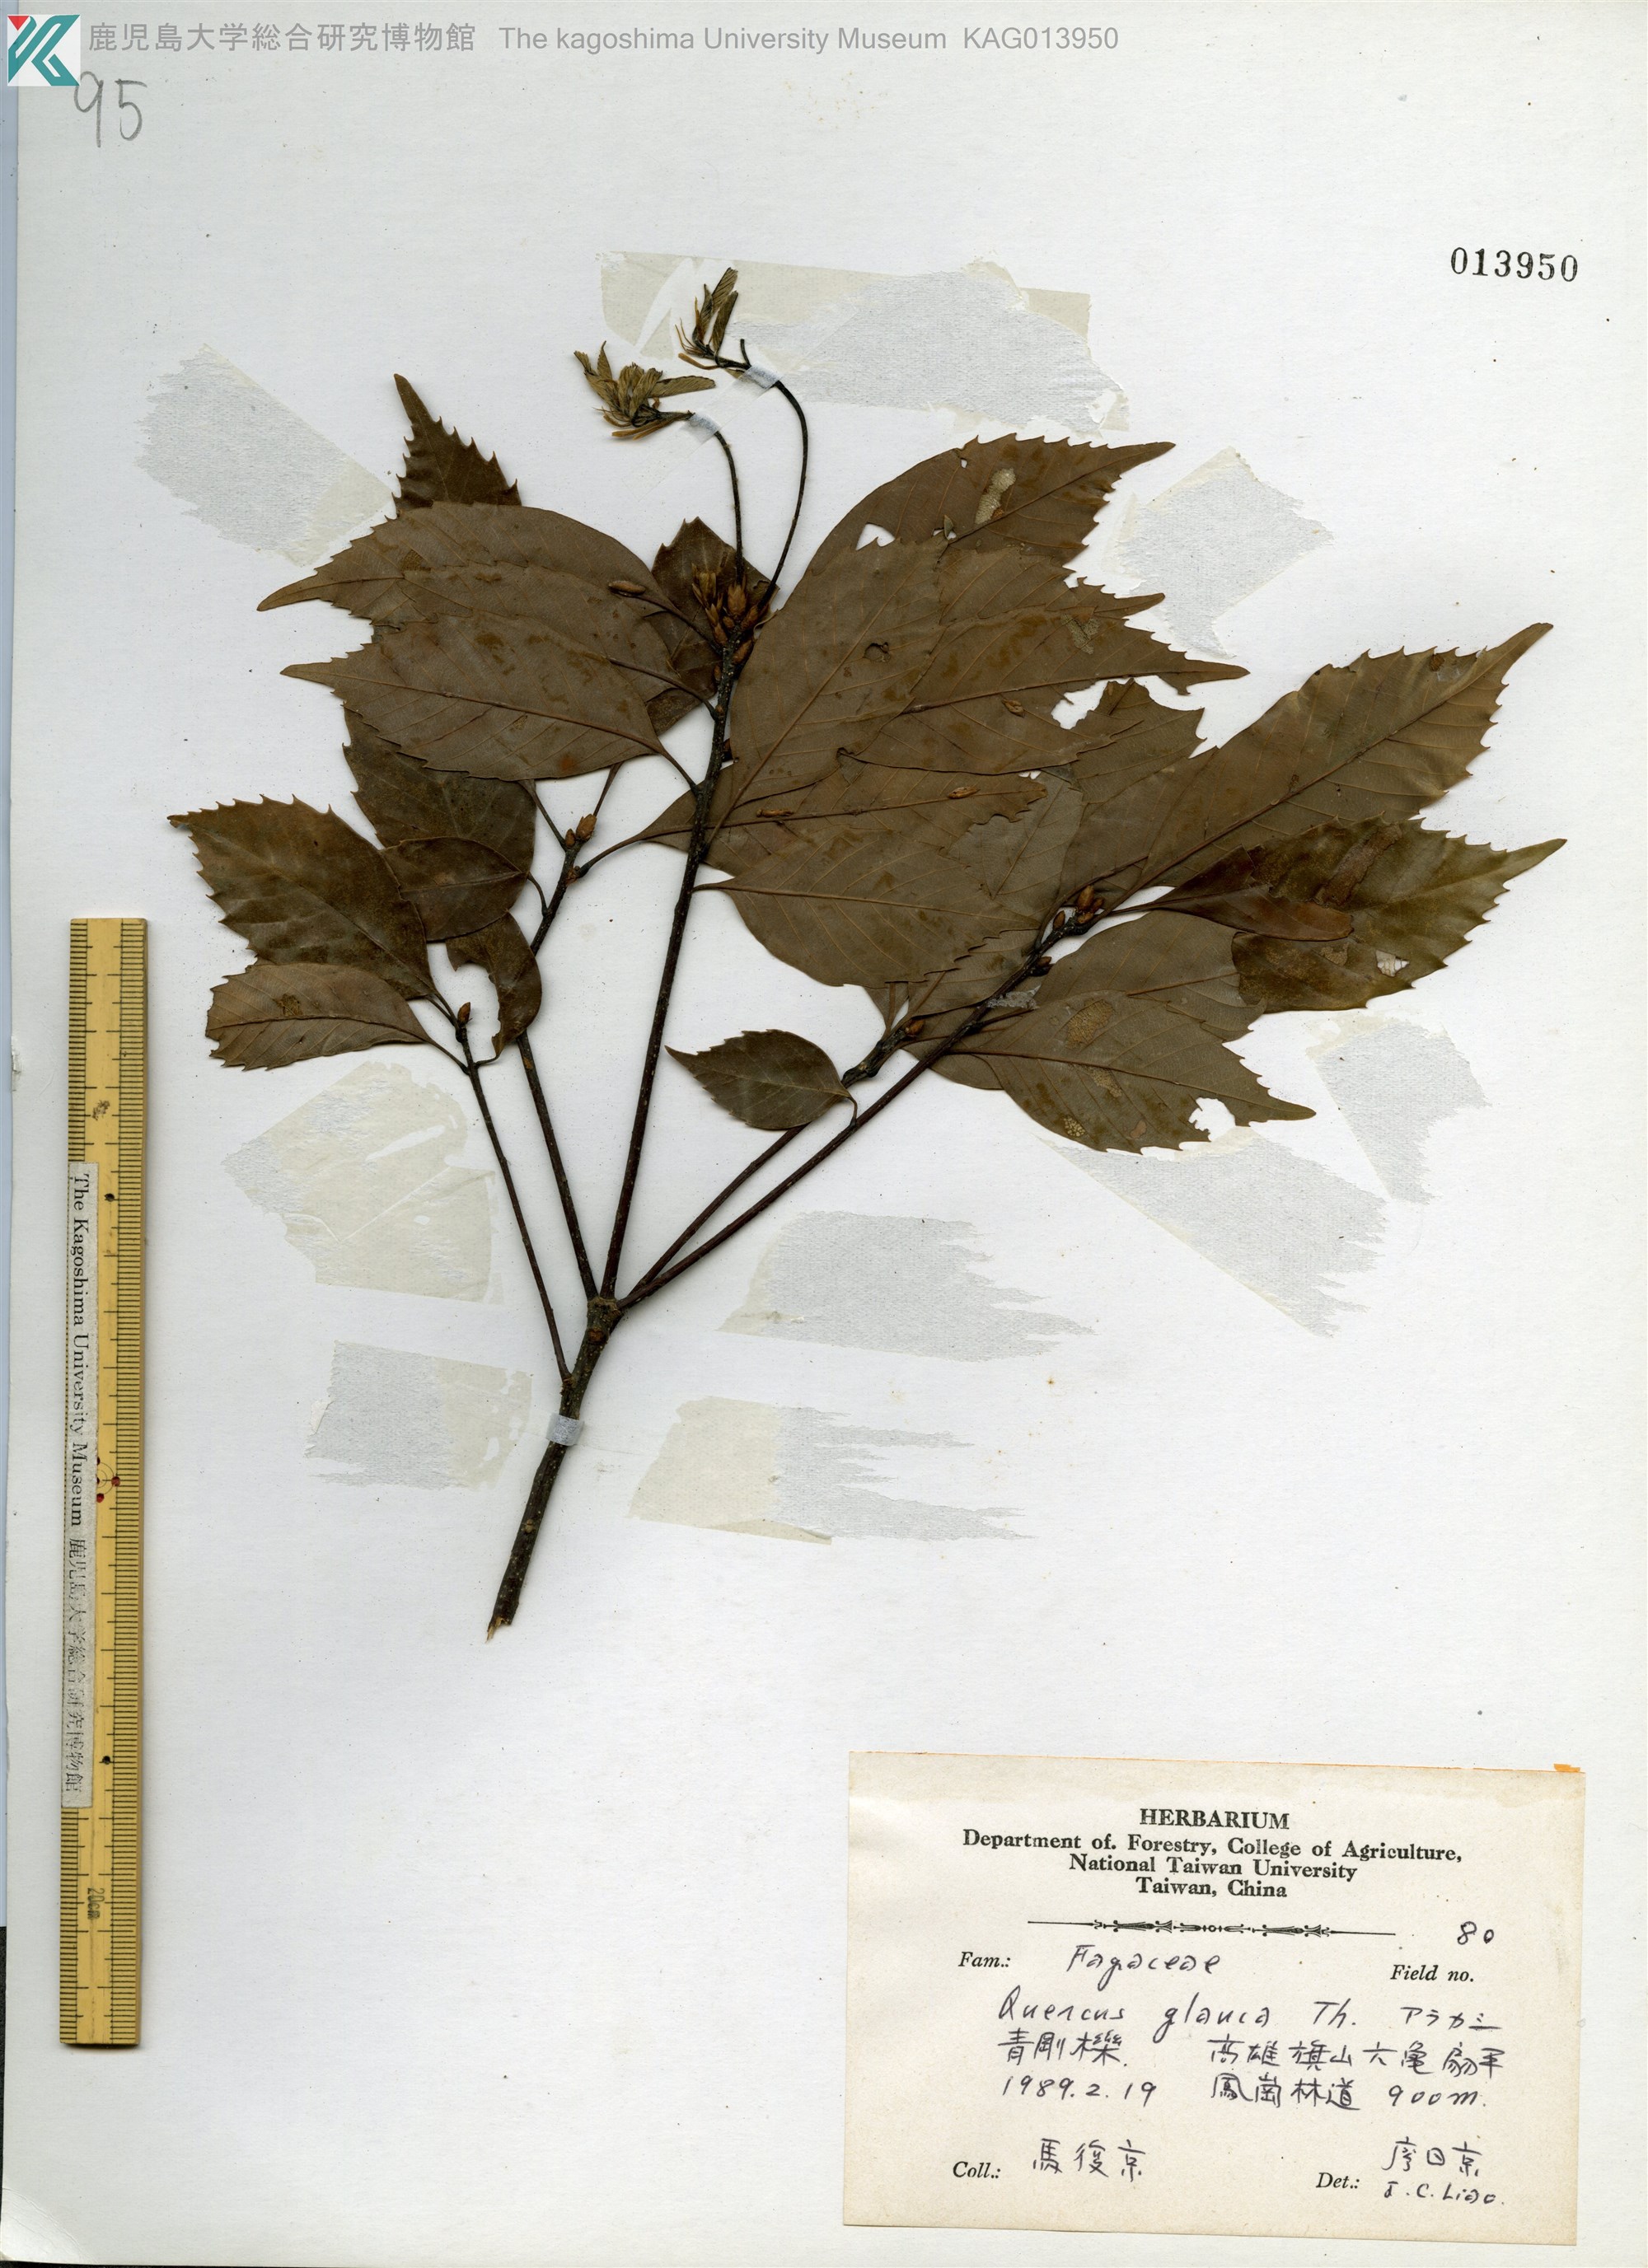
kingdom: Plantae
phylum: Tracheophyta
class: Magnoliopsida
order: Fagales
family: Fagaceae
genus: Quercus
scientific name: Quercus glauca
